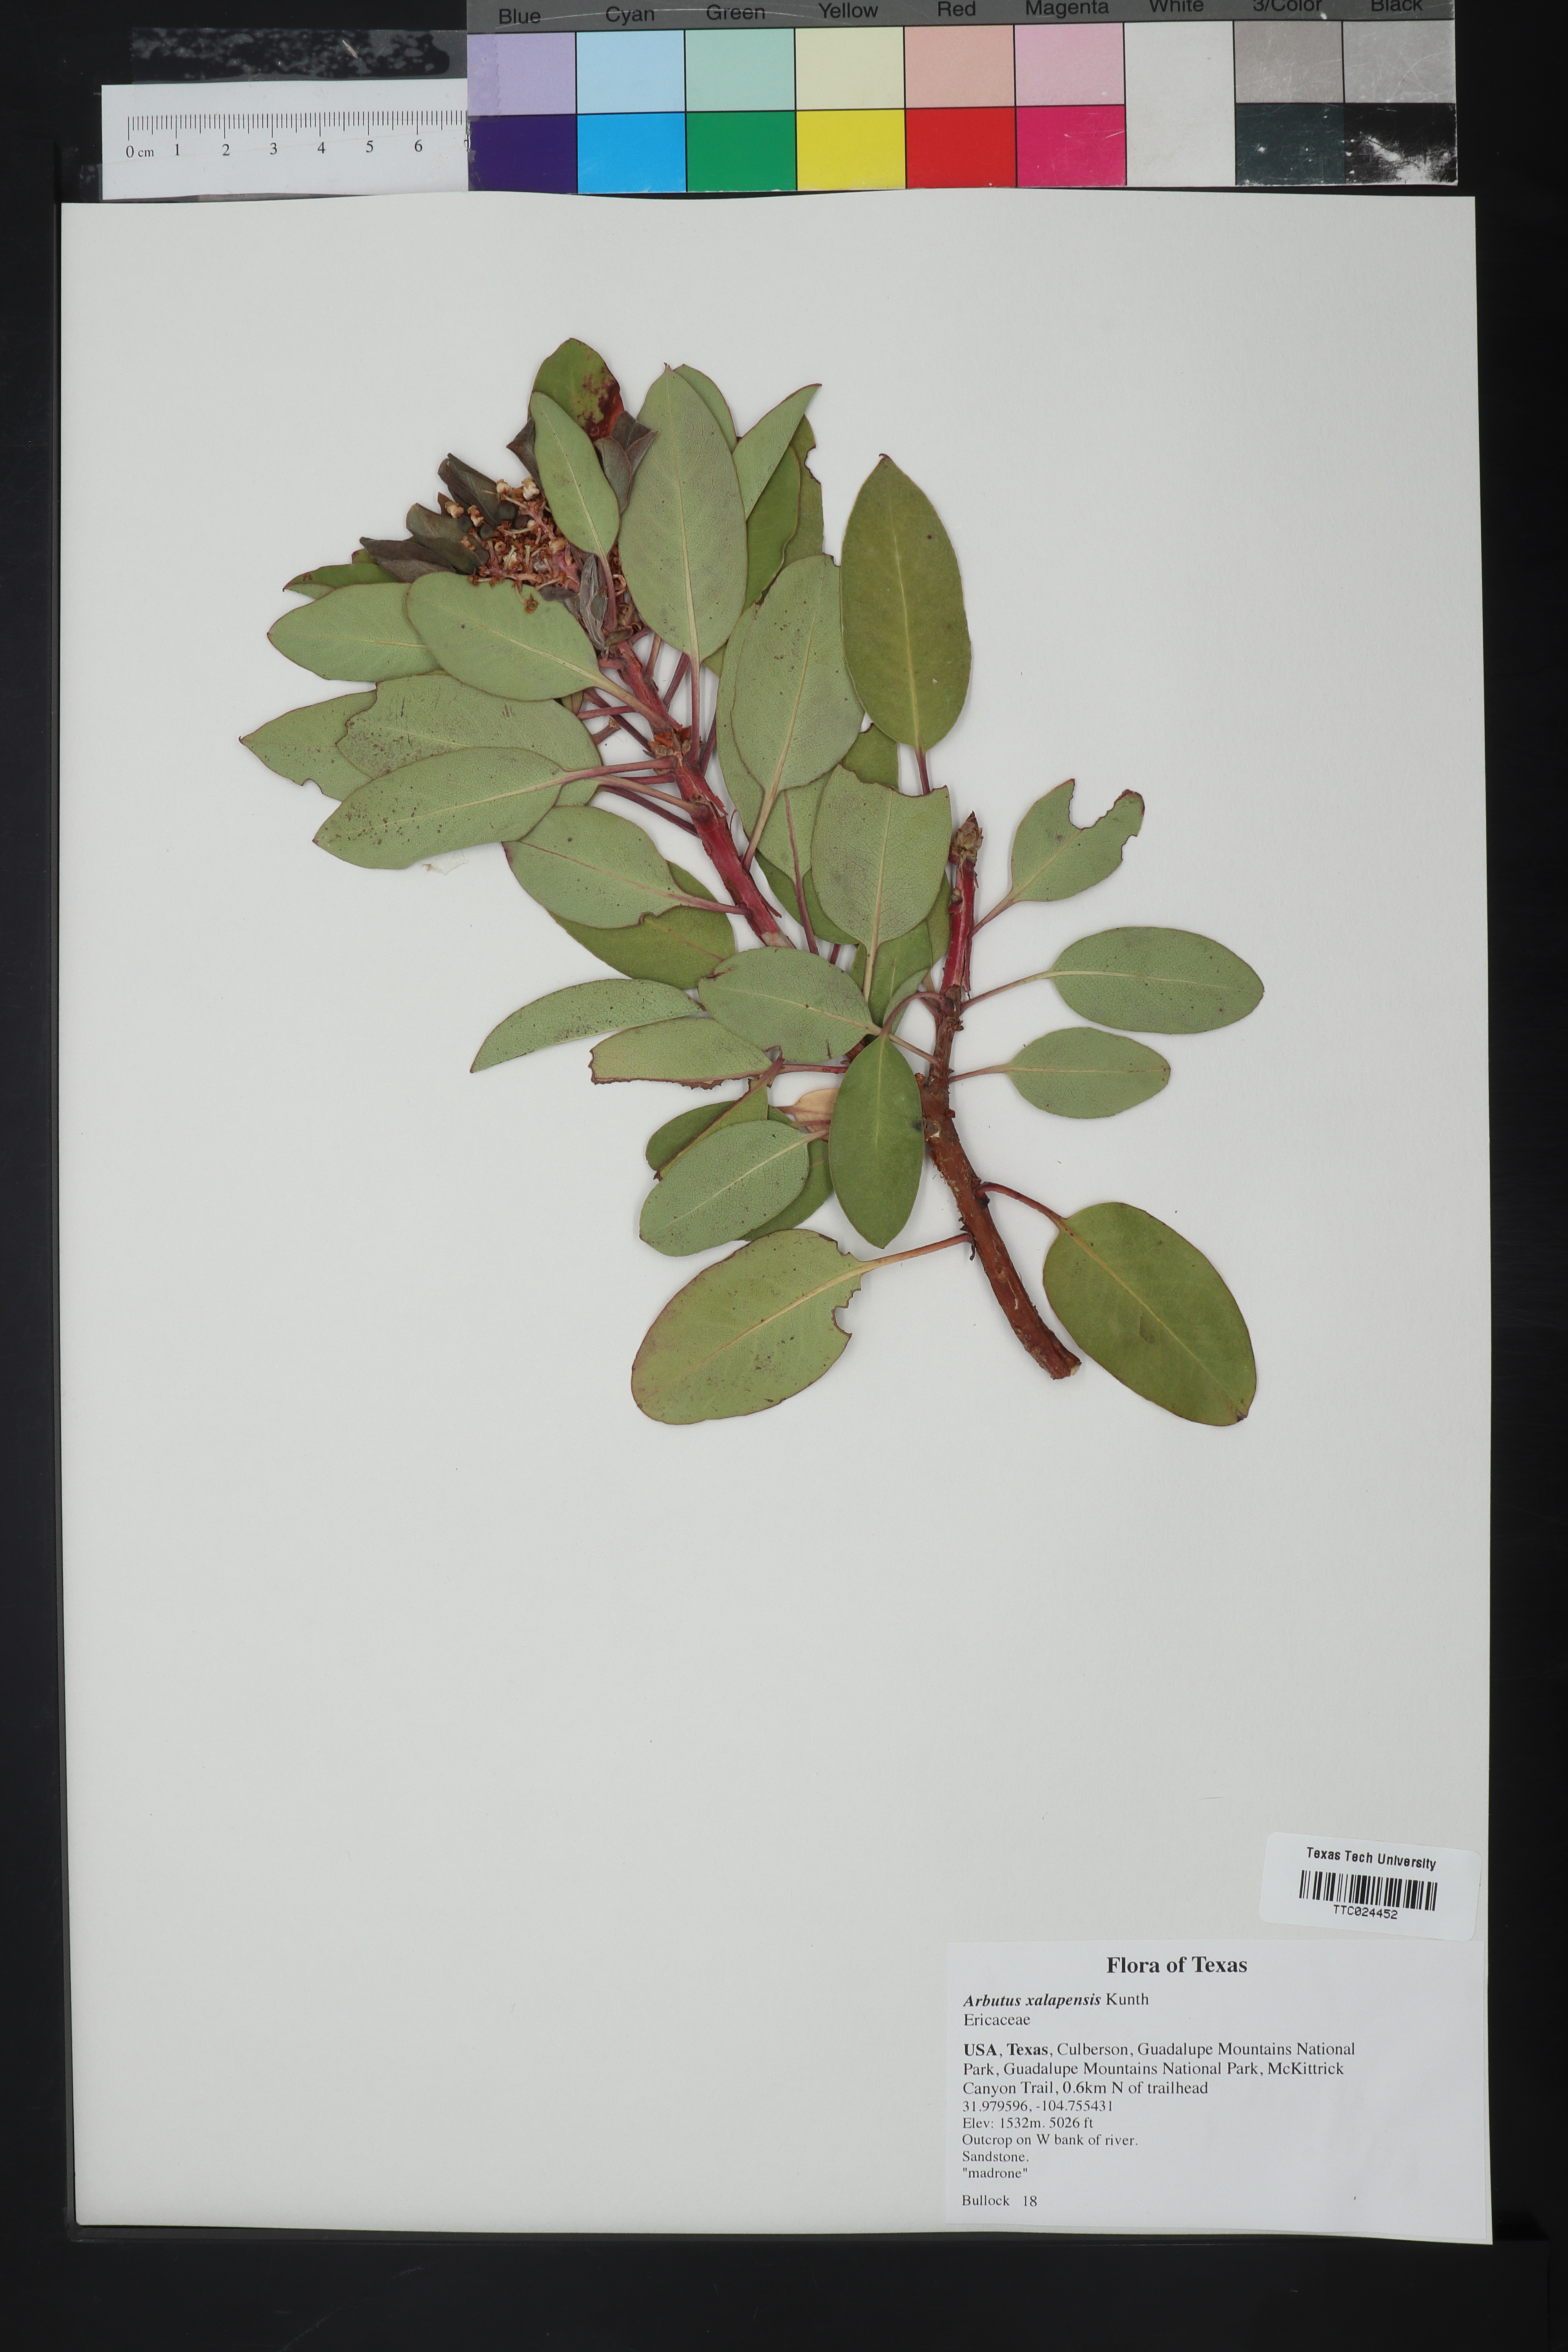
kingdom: Plantae
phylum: Tracheophyta
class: Magnoliopsida
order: Ericales
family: Ericaceae
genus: Arbutus
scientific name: Arbutus xalapensis
